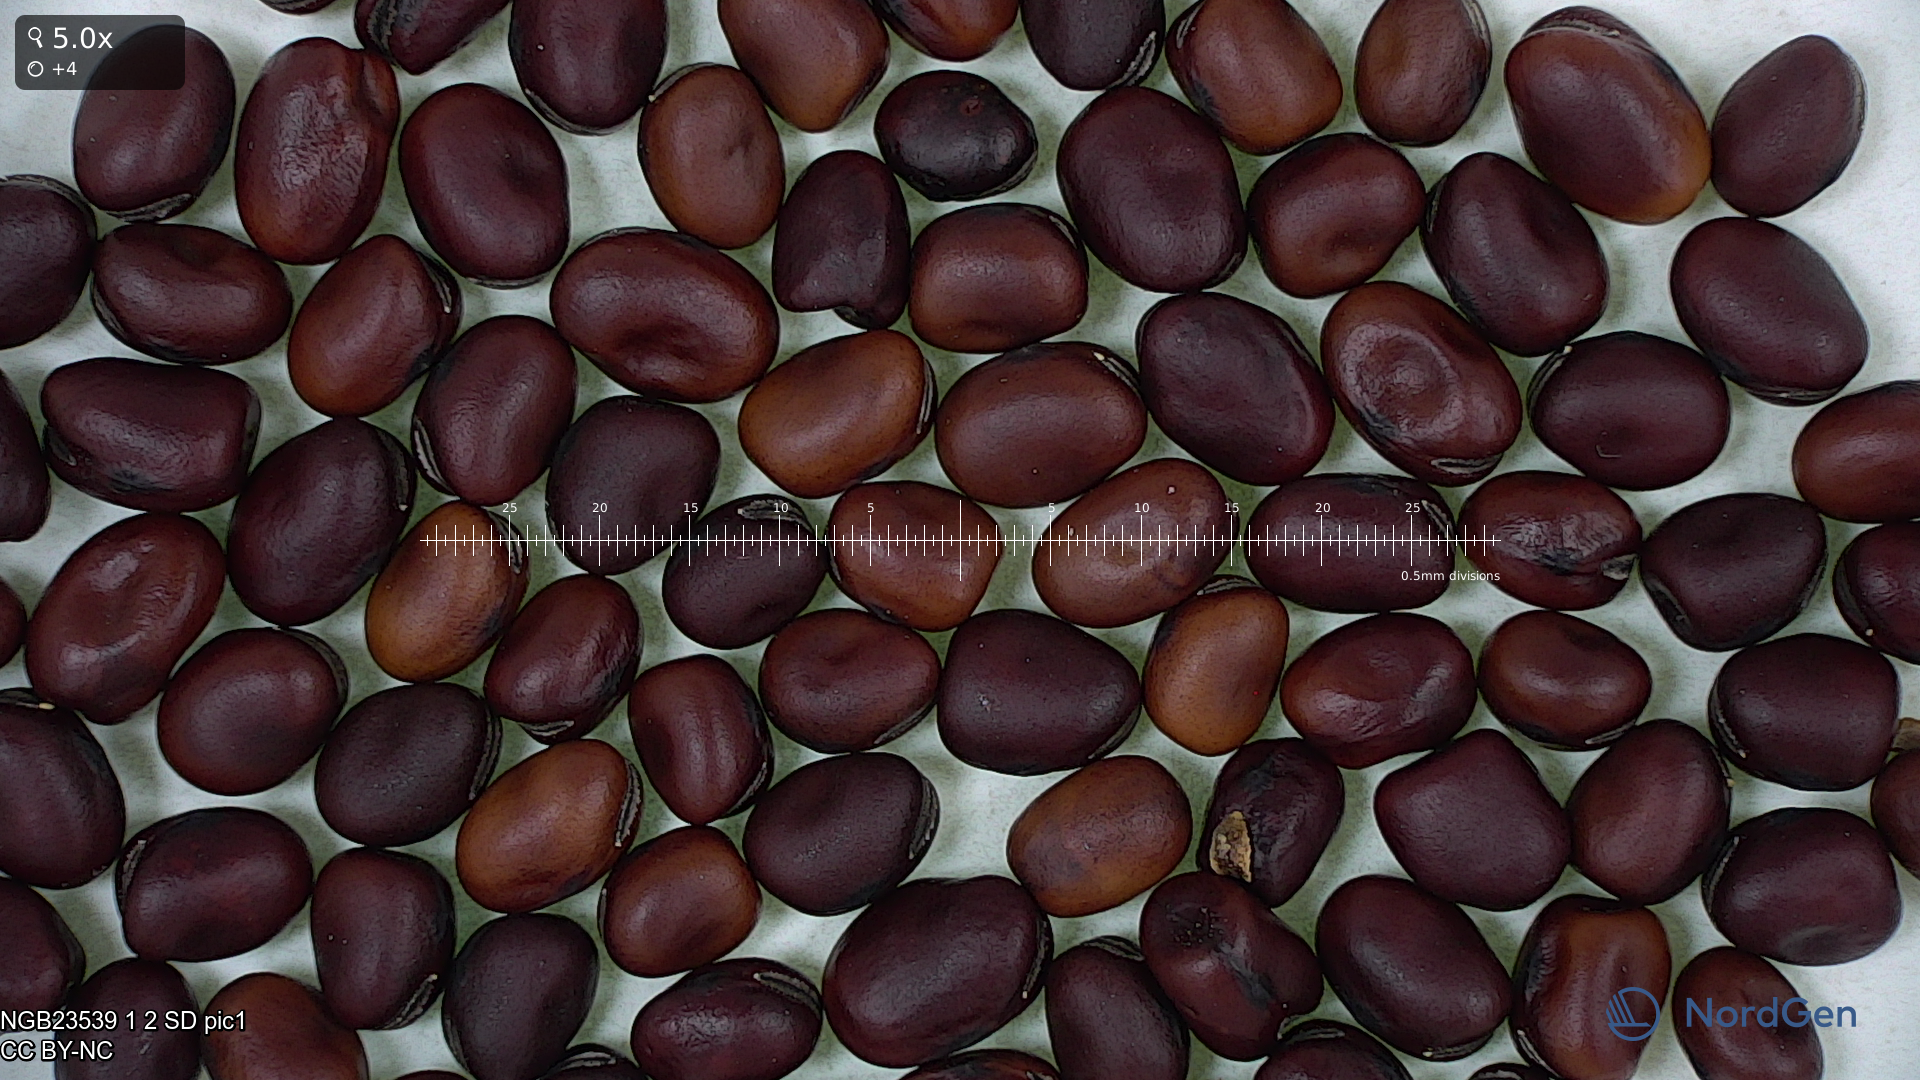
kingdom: Plantae
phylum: Tracheophyta
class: Magnoliopsida
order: Fabales
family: Fabaceae
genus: Vicia
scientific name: Vicia faba
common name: Broad bean
